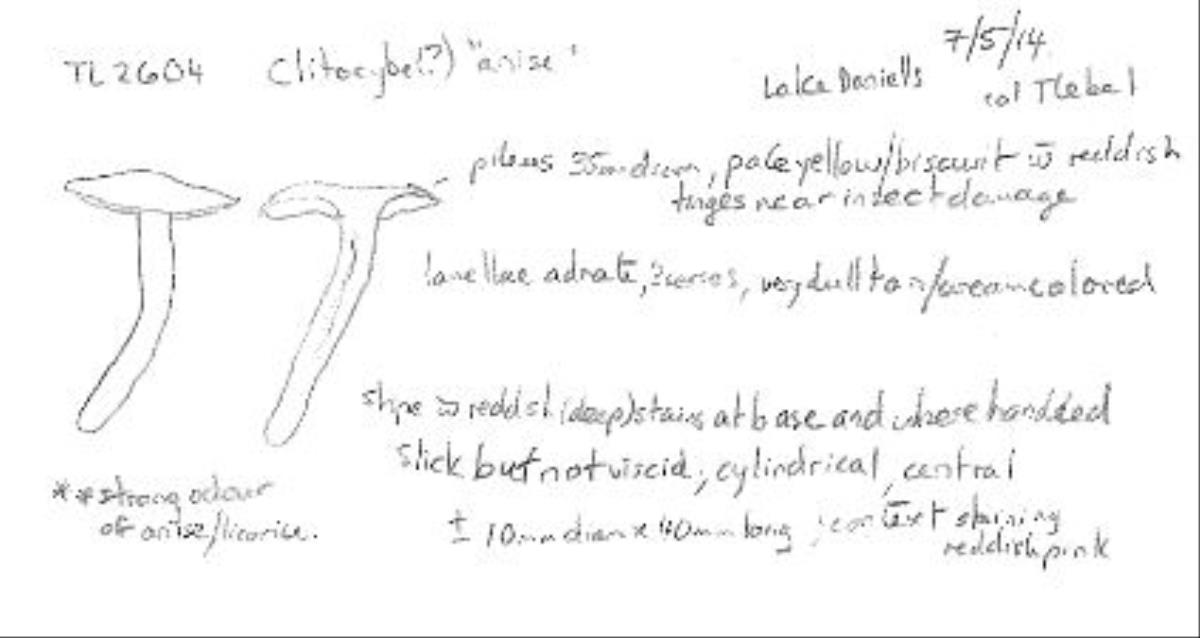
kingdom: Fungi
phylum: Basidiomycota
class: Agaricomycetes
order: Agaricales
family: Tricholomataceae
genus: Clitocybe
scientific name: Clitocybe paraditopa
